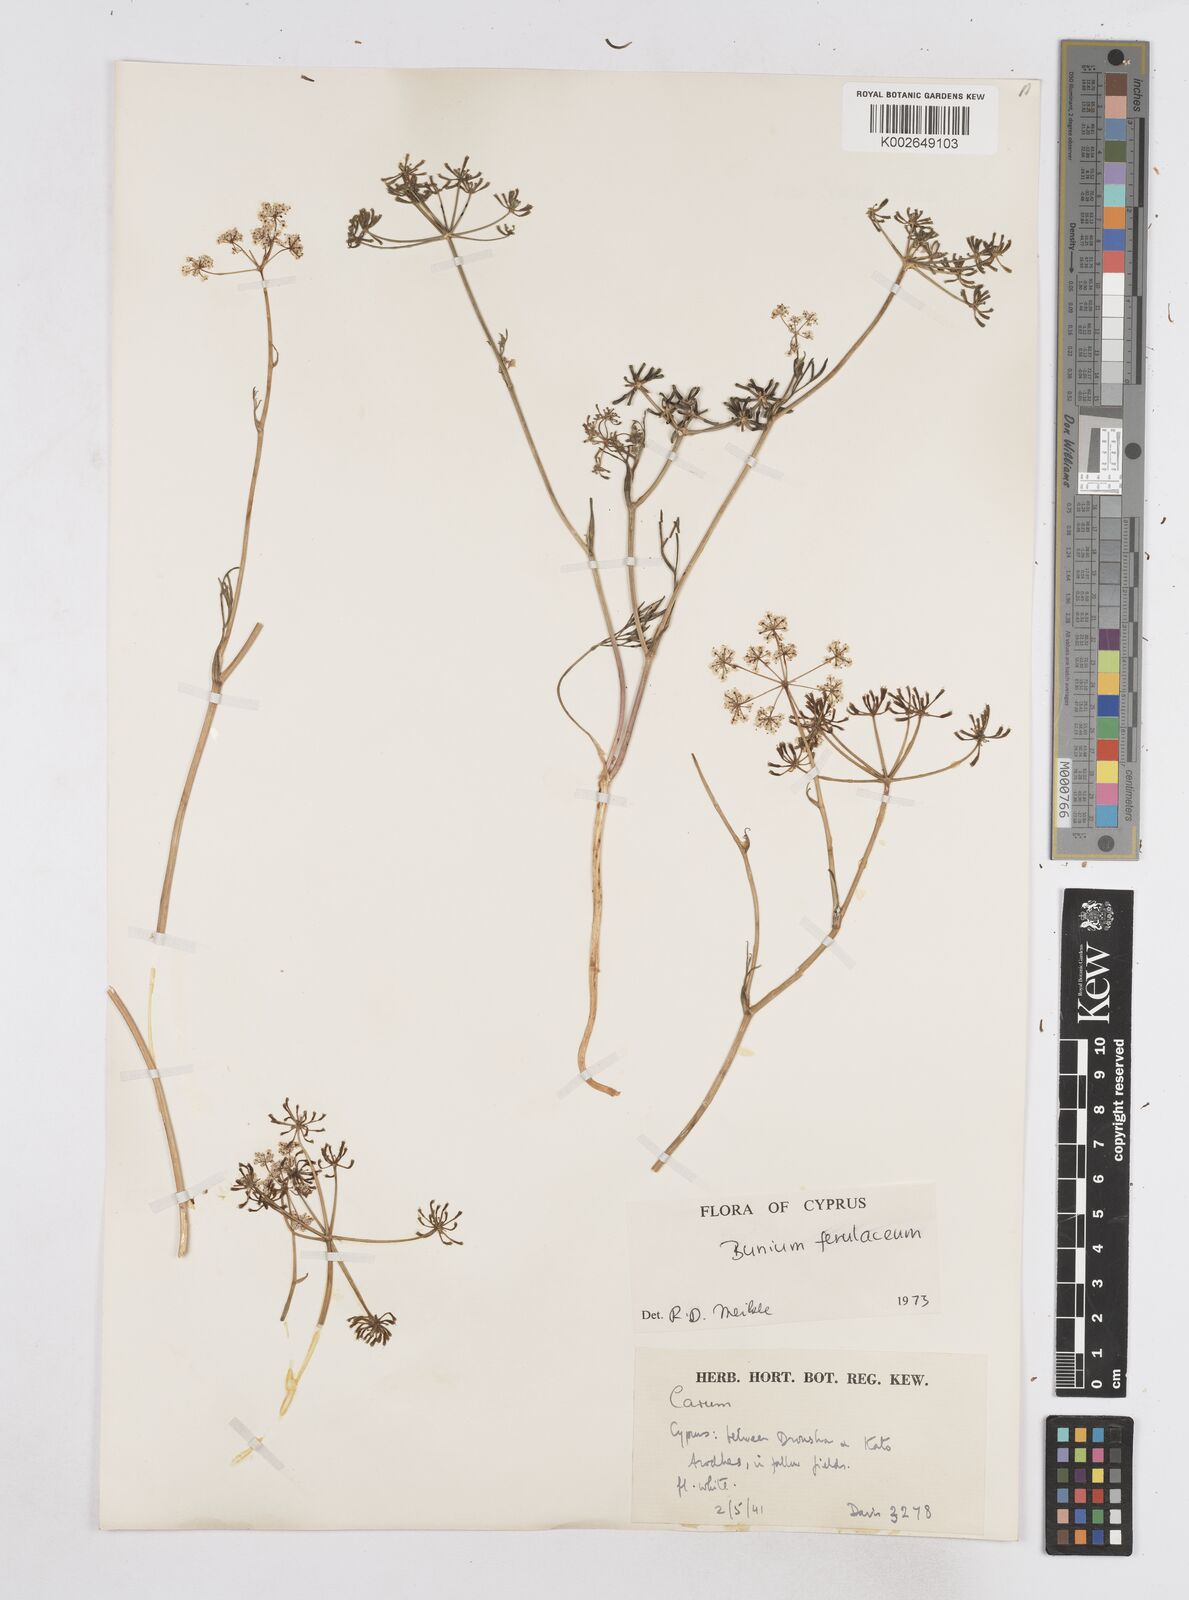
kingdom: Plantae
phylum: Tracheophyta
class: Magnoliopsida
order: Apiales
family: Apiaceae
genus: Bunium
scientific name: Bunium ferulaceum
